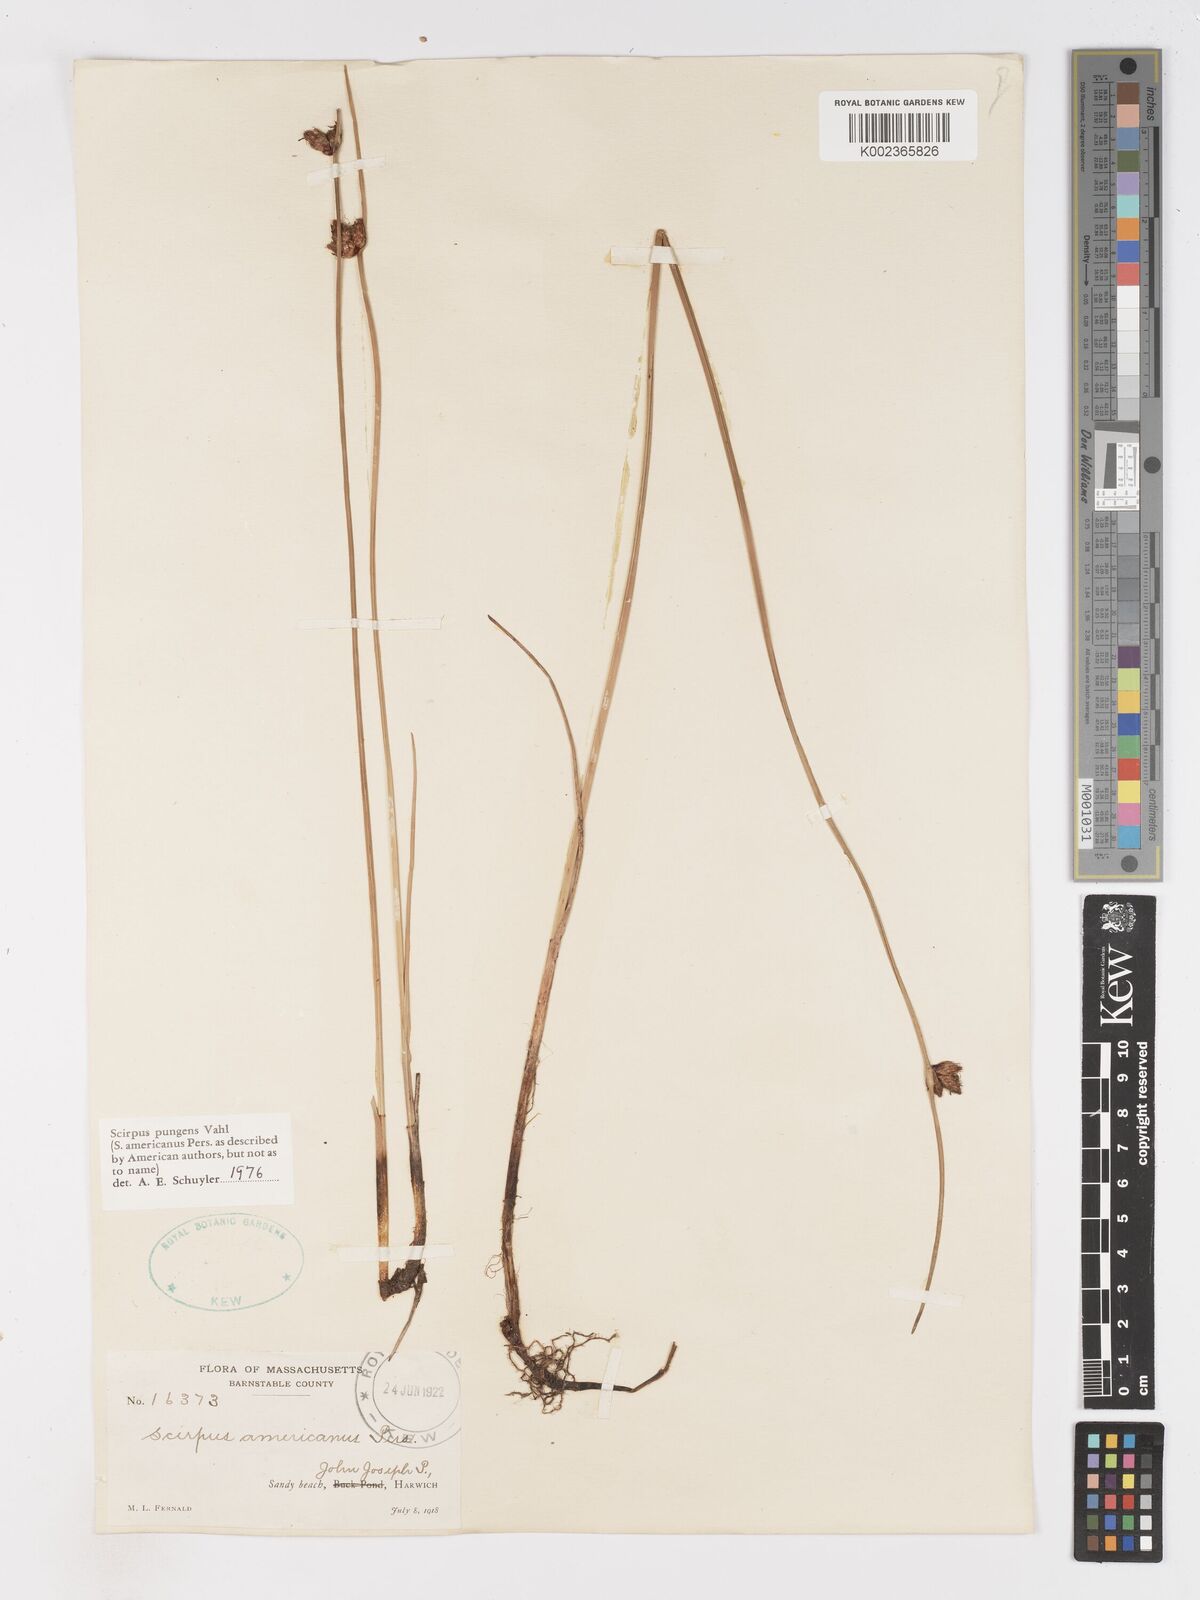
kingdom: Plantae
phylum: Tracheophyta
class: Liliopsida
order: Poales
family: Cyperaceae
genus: Schoenoplectus
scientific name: Schoenoplectus pungens
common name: Sharp club-rush
